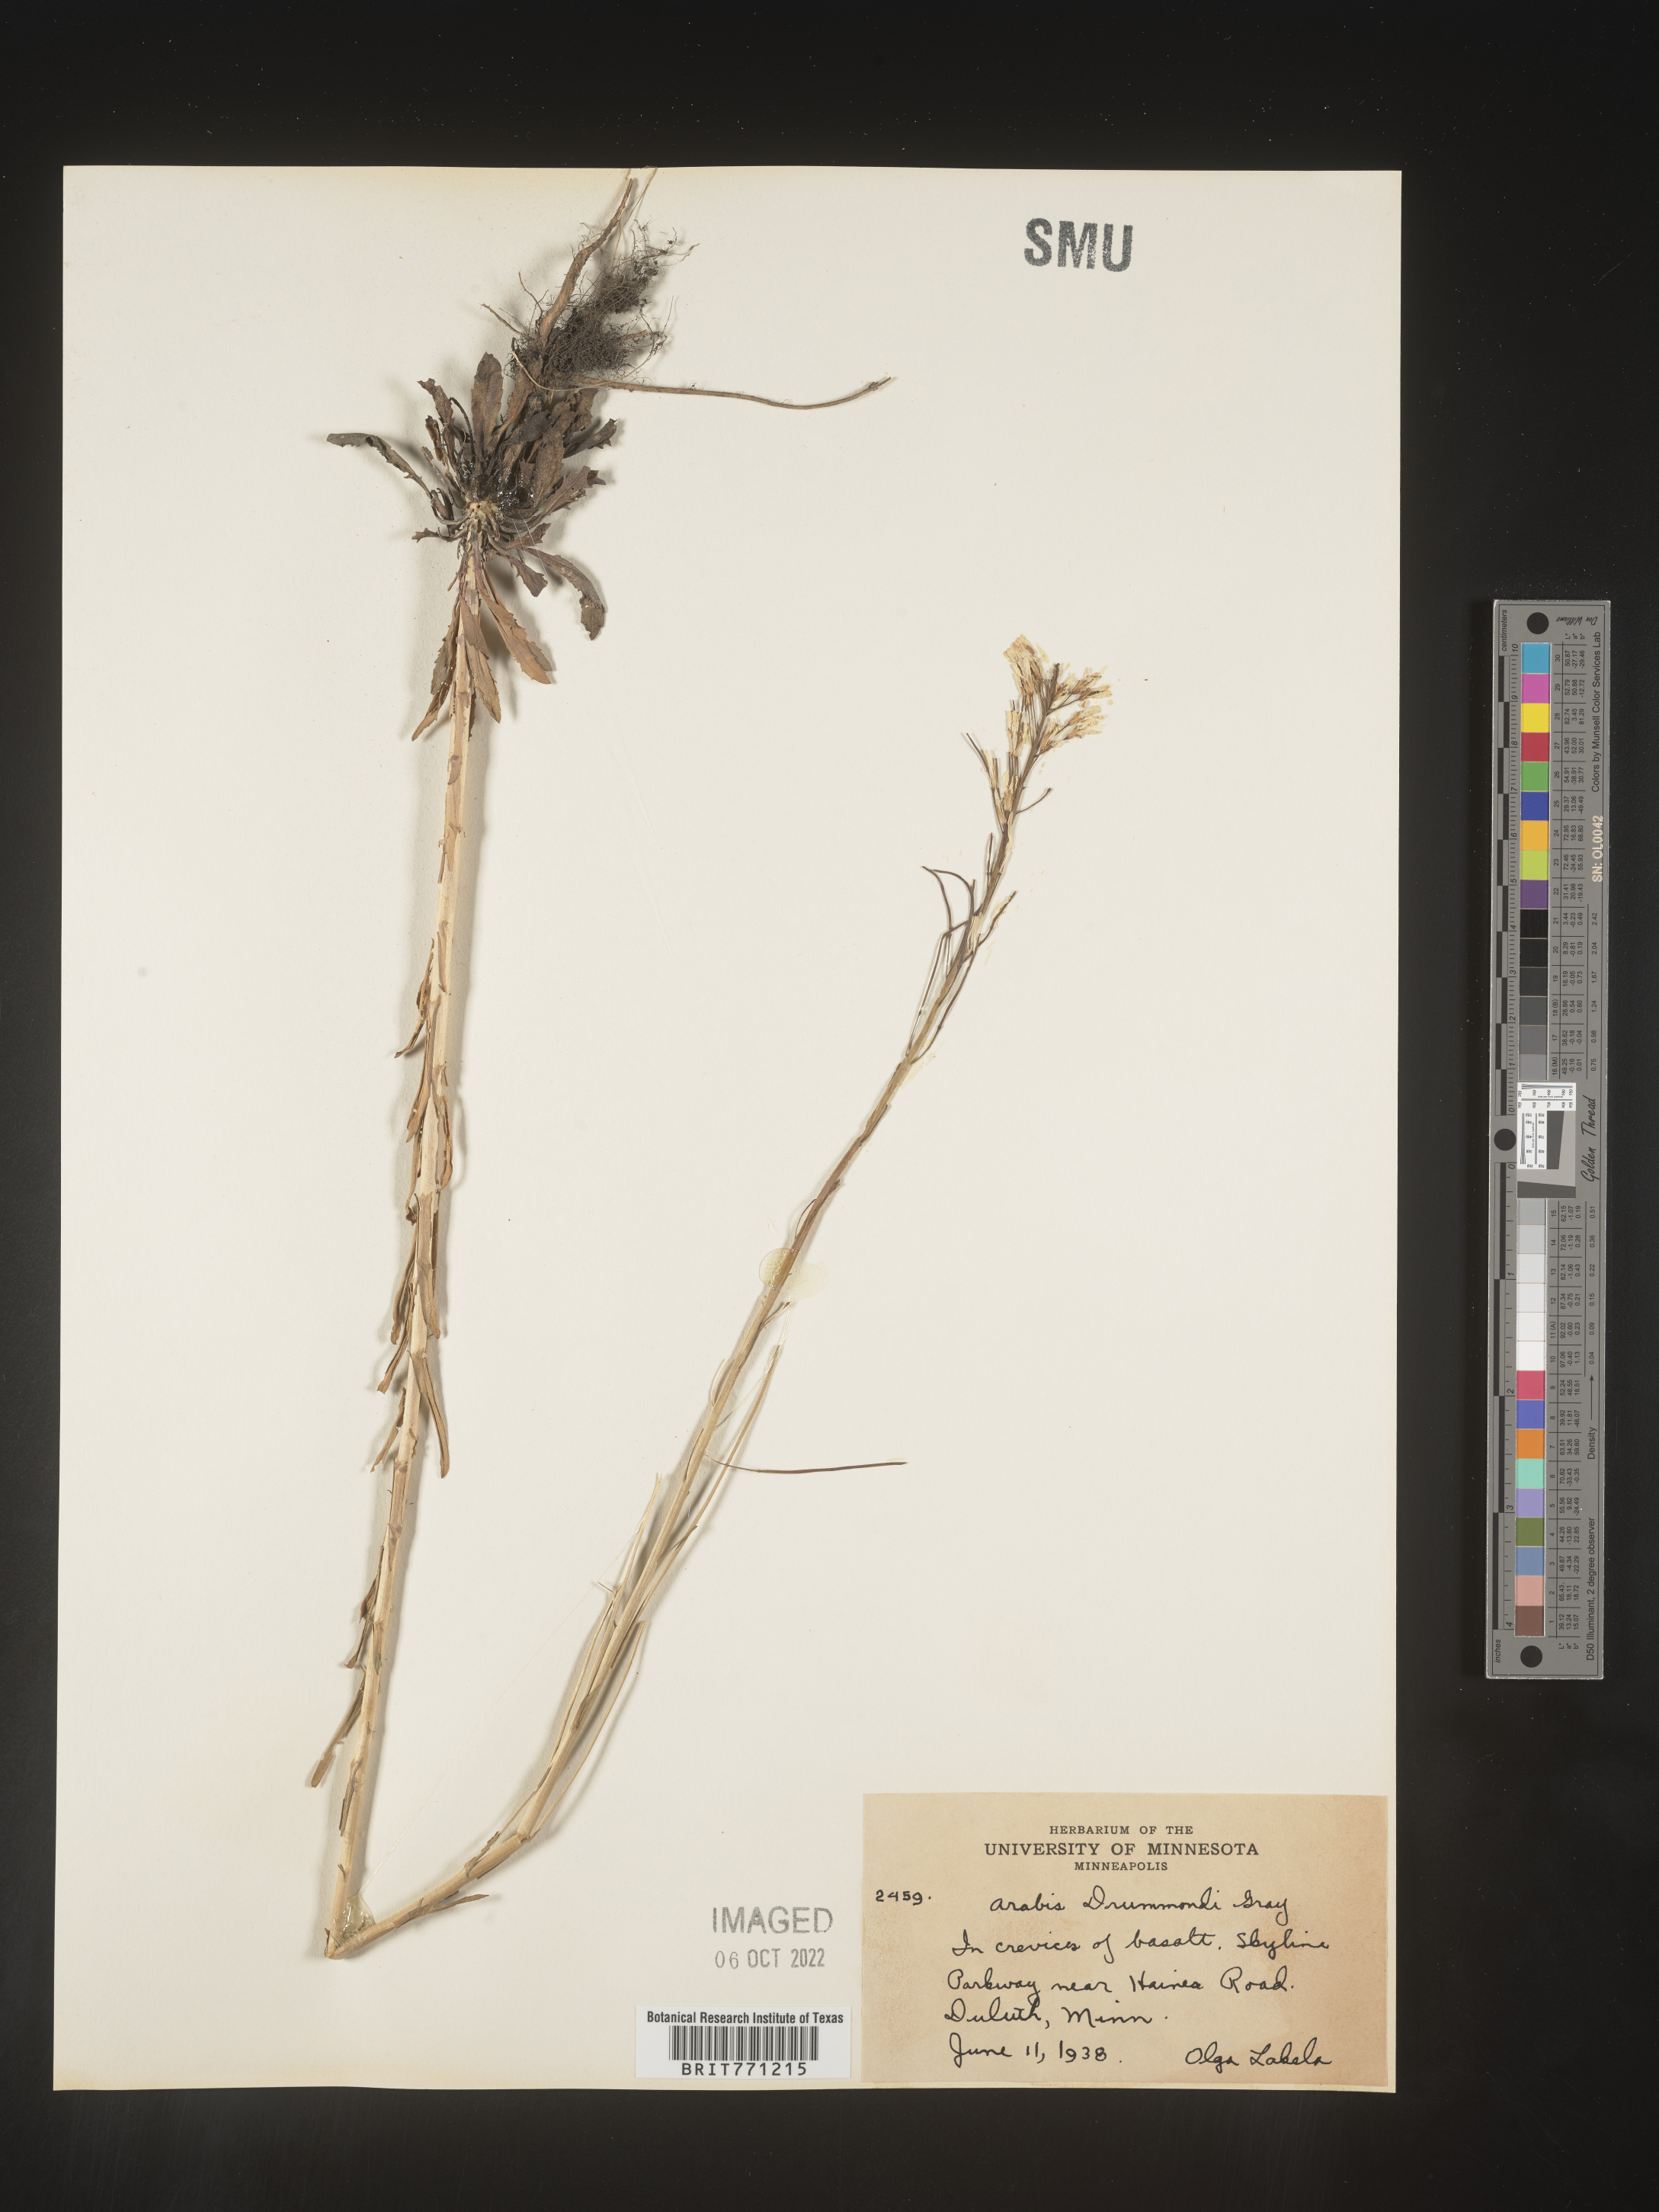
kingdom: Plantae
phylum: Tracheophyta
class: Magnoliopsida
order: Brassicales
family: Brassicaceae
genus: Boechera
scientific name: Boechera stricta
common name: Canadian rockcress
